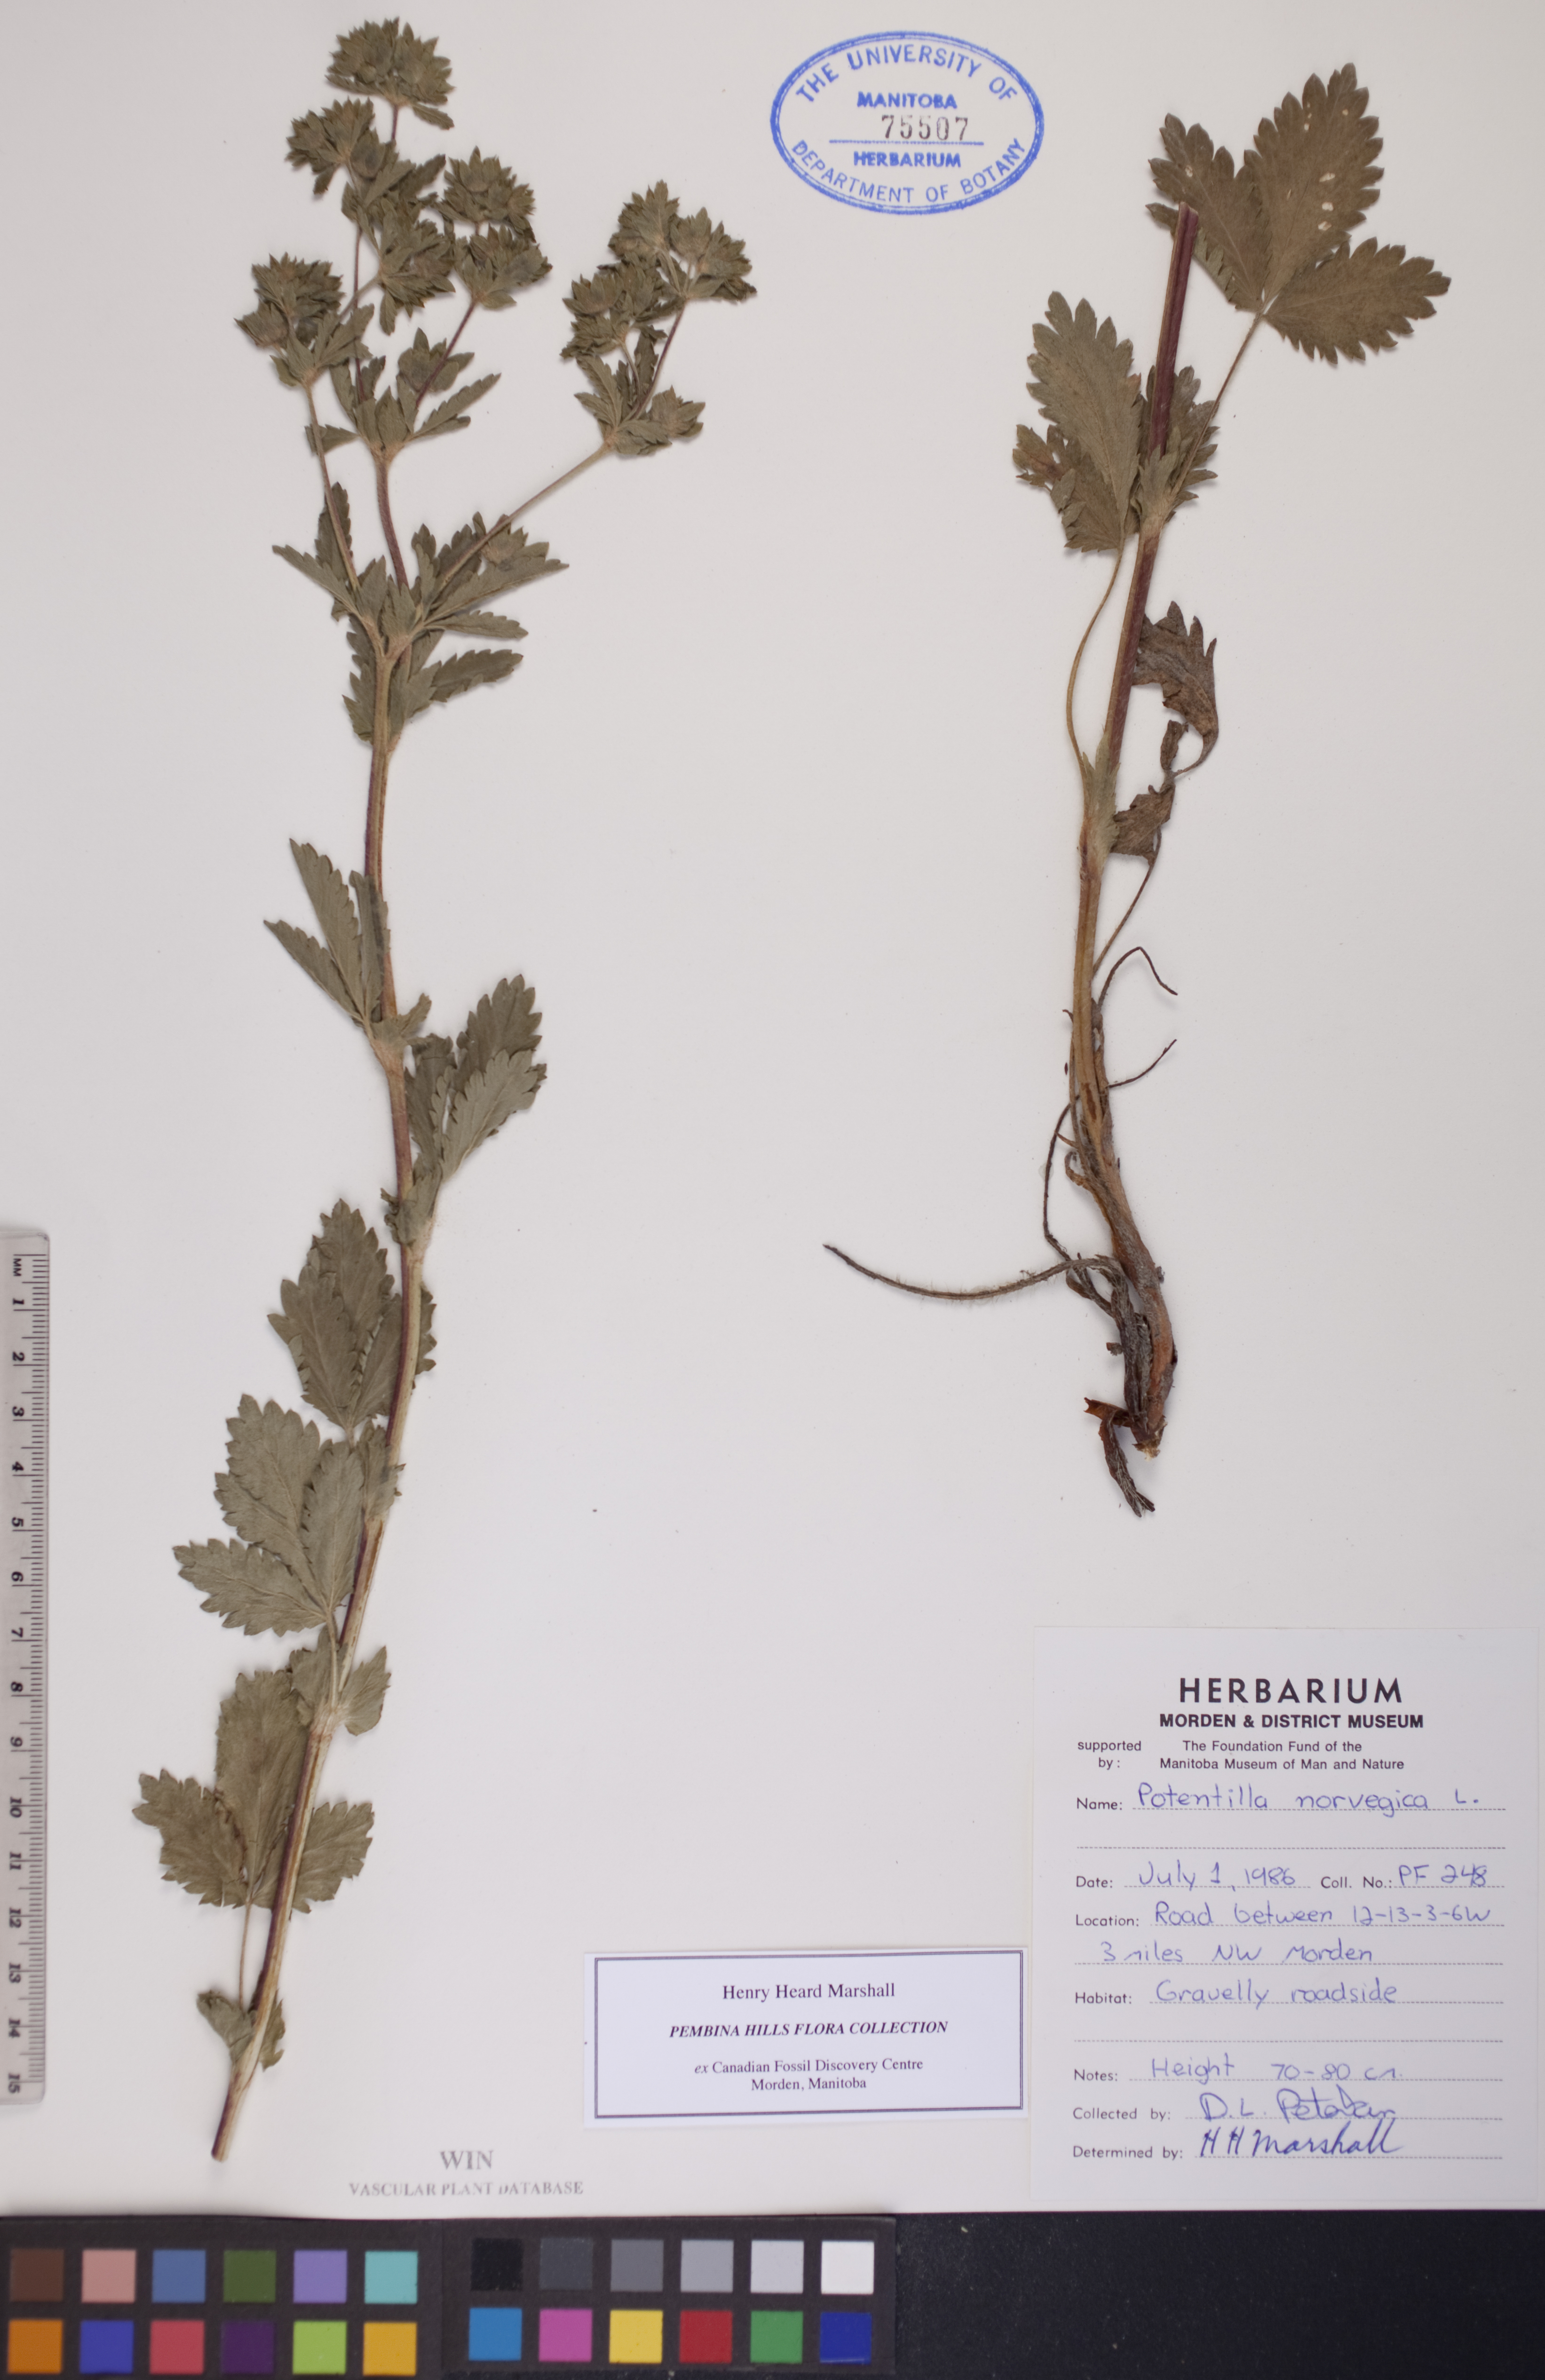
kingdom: Plantae
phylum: Tracheophyta
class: Magnoliopsida
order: Rosales
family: Rosaceae
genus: Potentilla
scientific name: Potentilla norvegica
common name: Ternate-leaved cinquefoil
